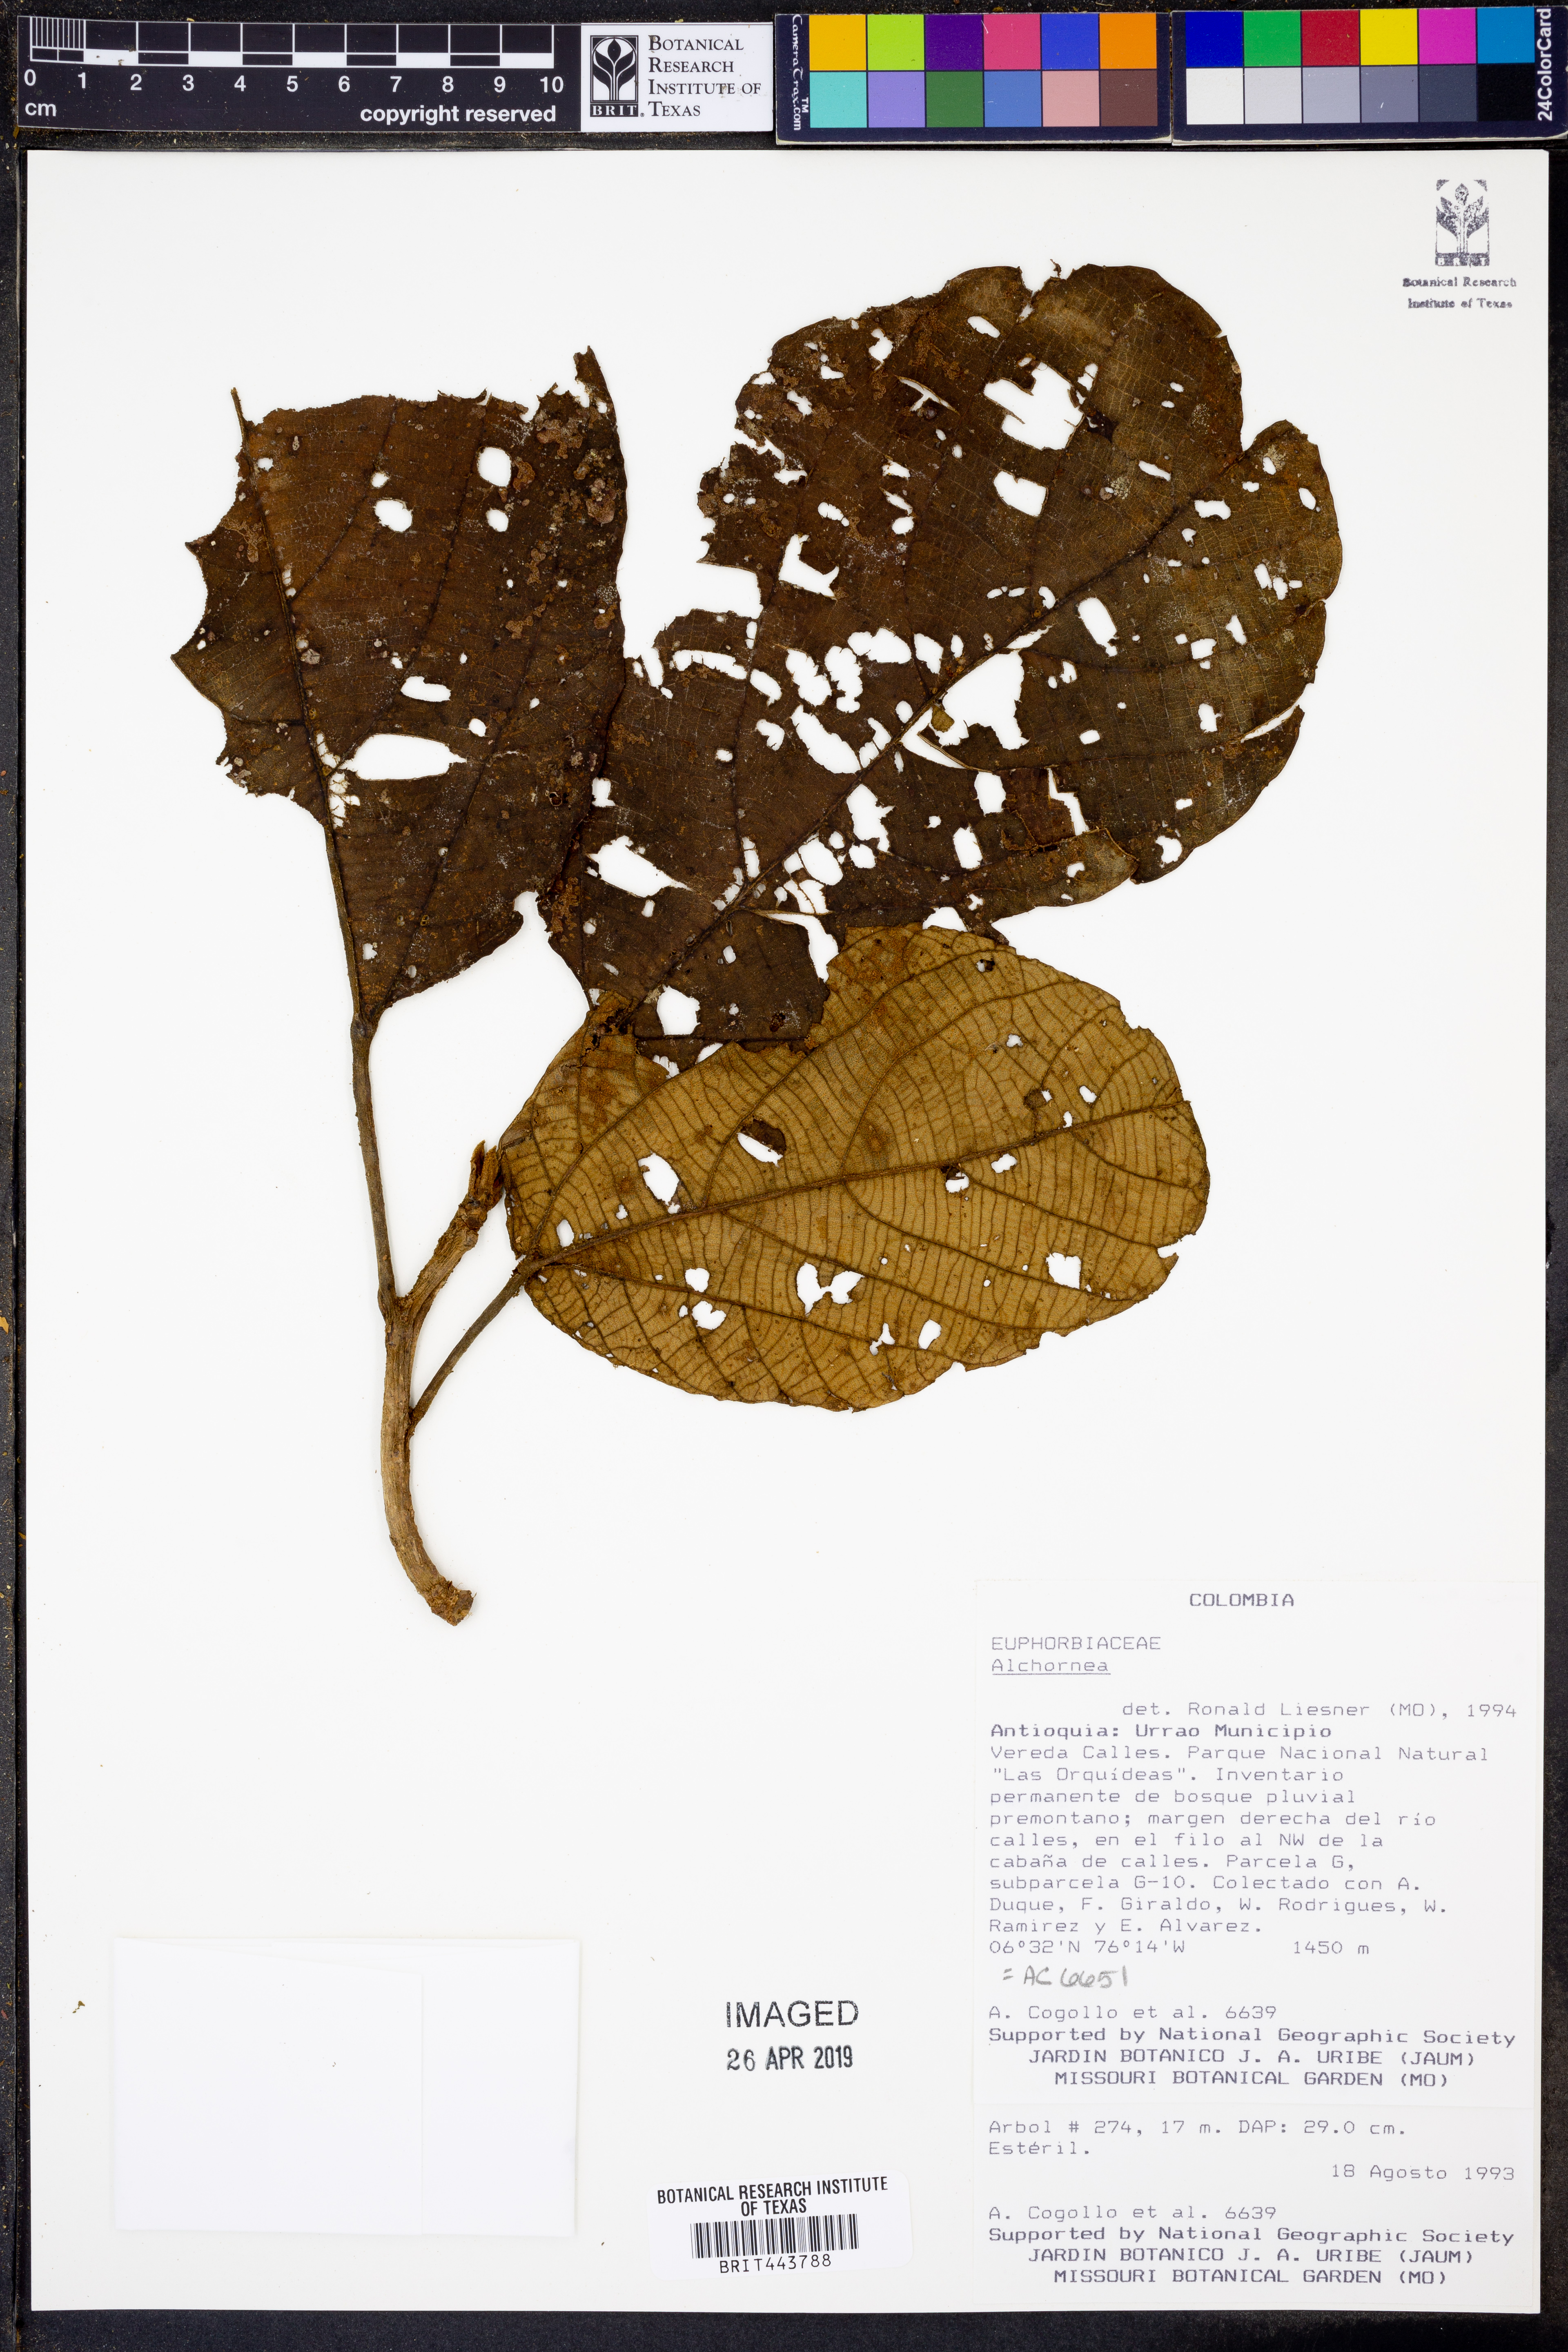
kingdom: Plantae
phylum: Tracheophyta
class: Magnoliopsida
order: Malpighiales
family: Euphorbiaceae
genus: Alchornea
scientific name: Alchornea
